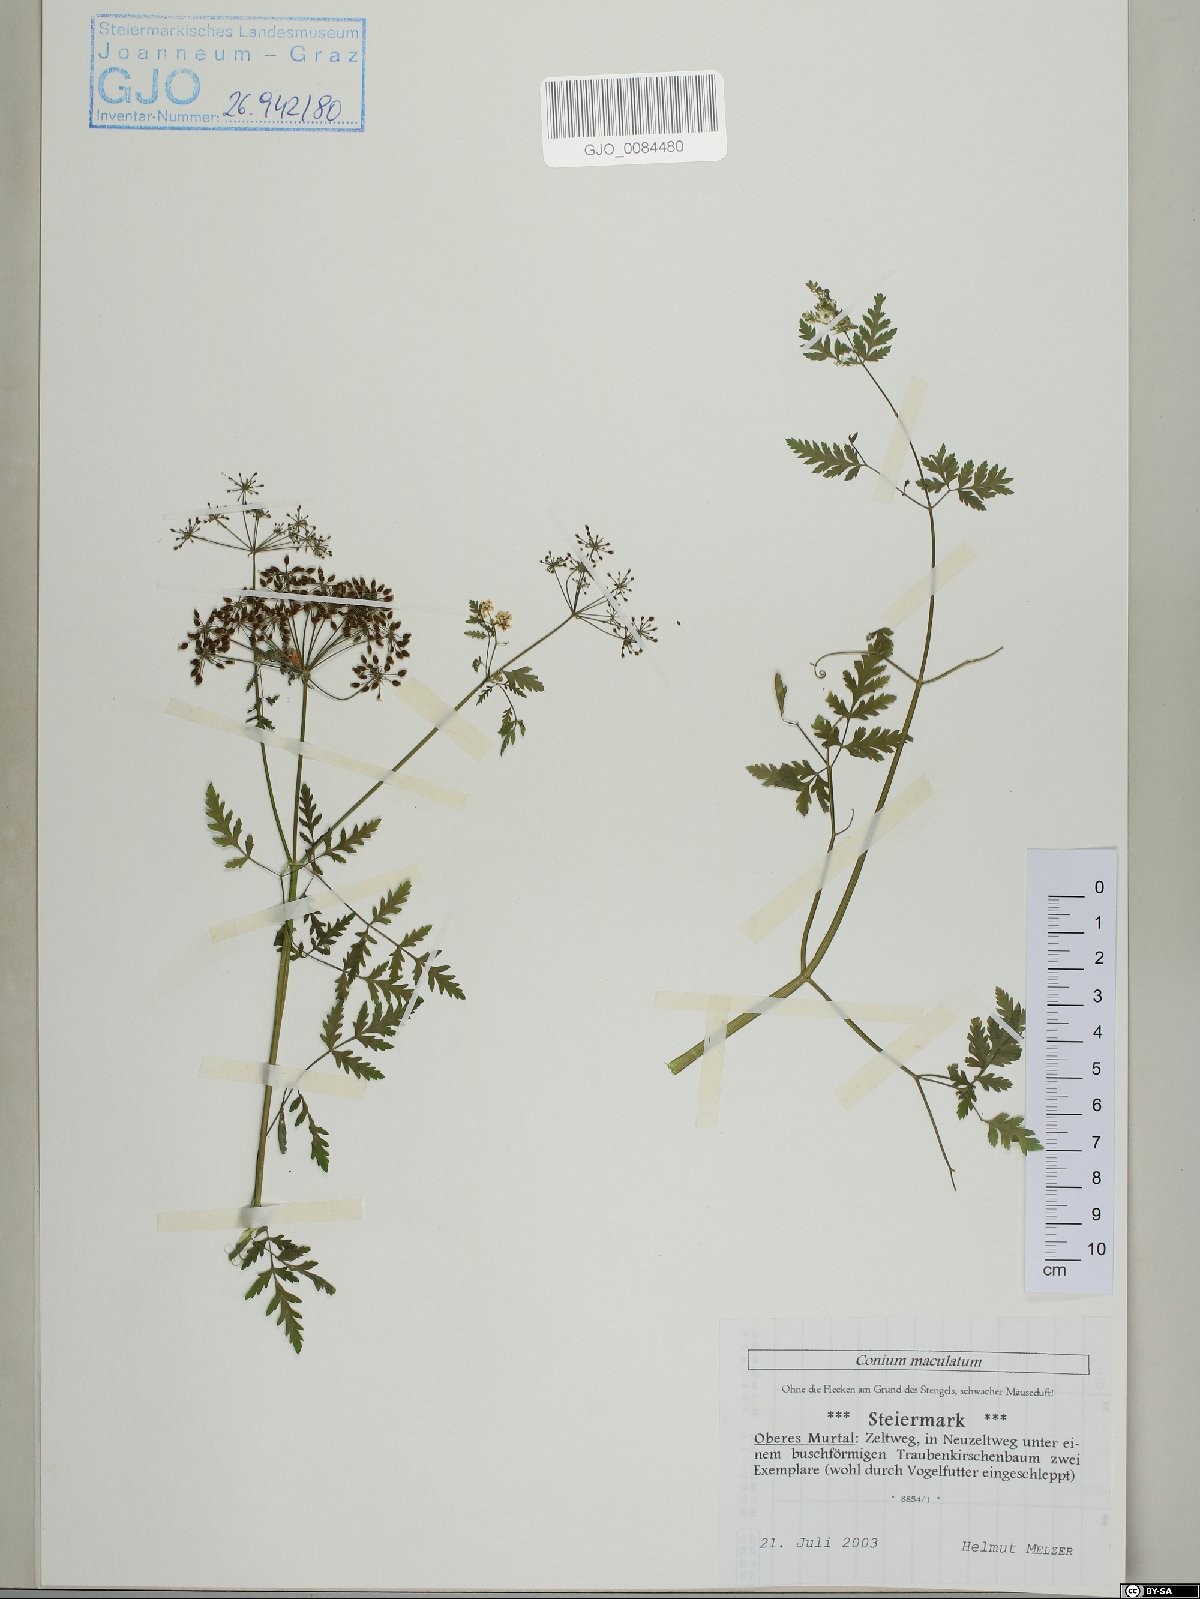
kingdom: Plantae
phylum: Tracheophyta
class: Magnoliopsida
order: Apiales
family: Apiaceae
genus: Conium
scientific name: Conium maculatum
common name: Hemlock
